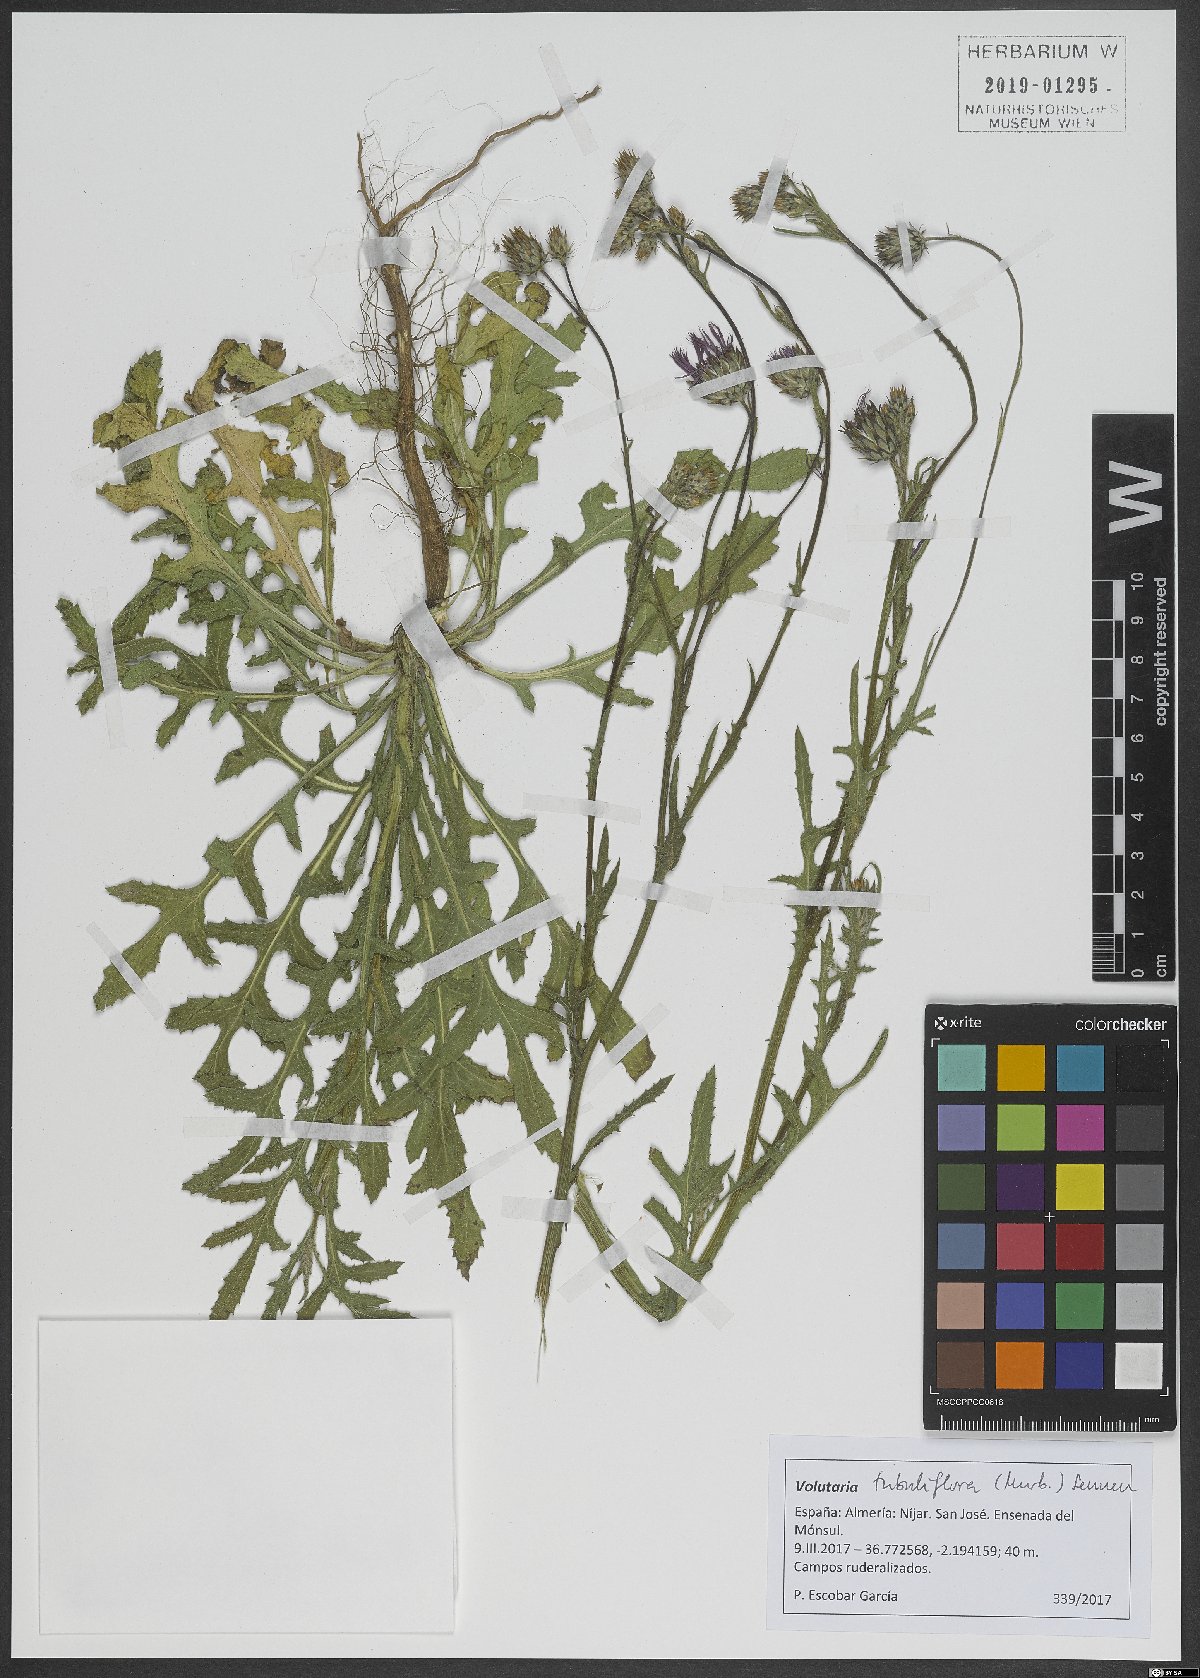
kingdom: Plantae
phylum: Tracheophyta
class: Magnoliopsida
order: Asterales
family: Asteraceae
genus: Volutaria
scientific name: Volutaria tubuliflora
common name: Desert knapweed
